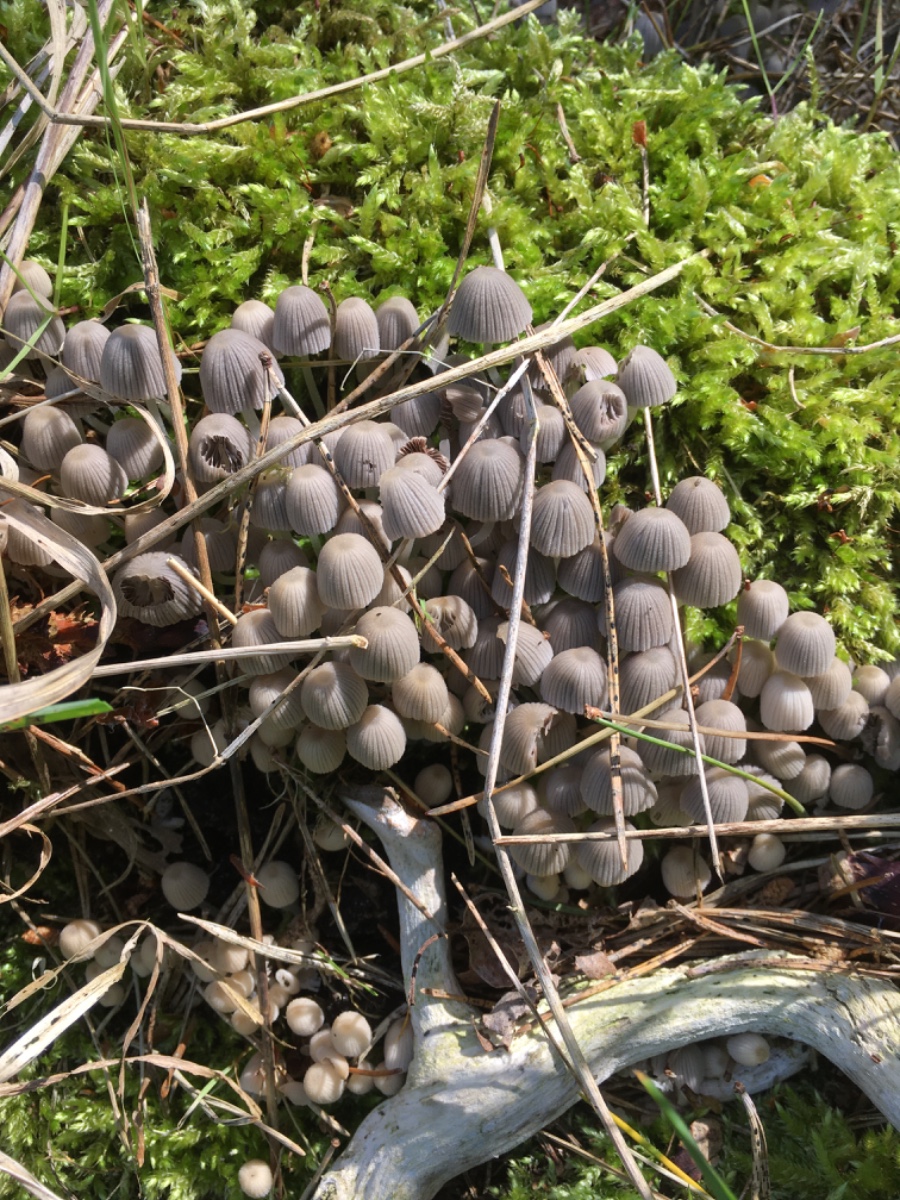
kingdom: Fungi
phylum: Basidiomycota
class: Agaricomycetes
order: Agaricales
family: Psathyrellaceae
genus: Coprinellus
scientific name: Coprinellus disseminatus
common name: bredsået blækhat
